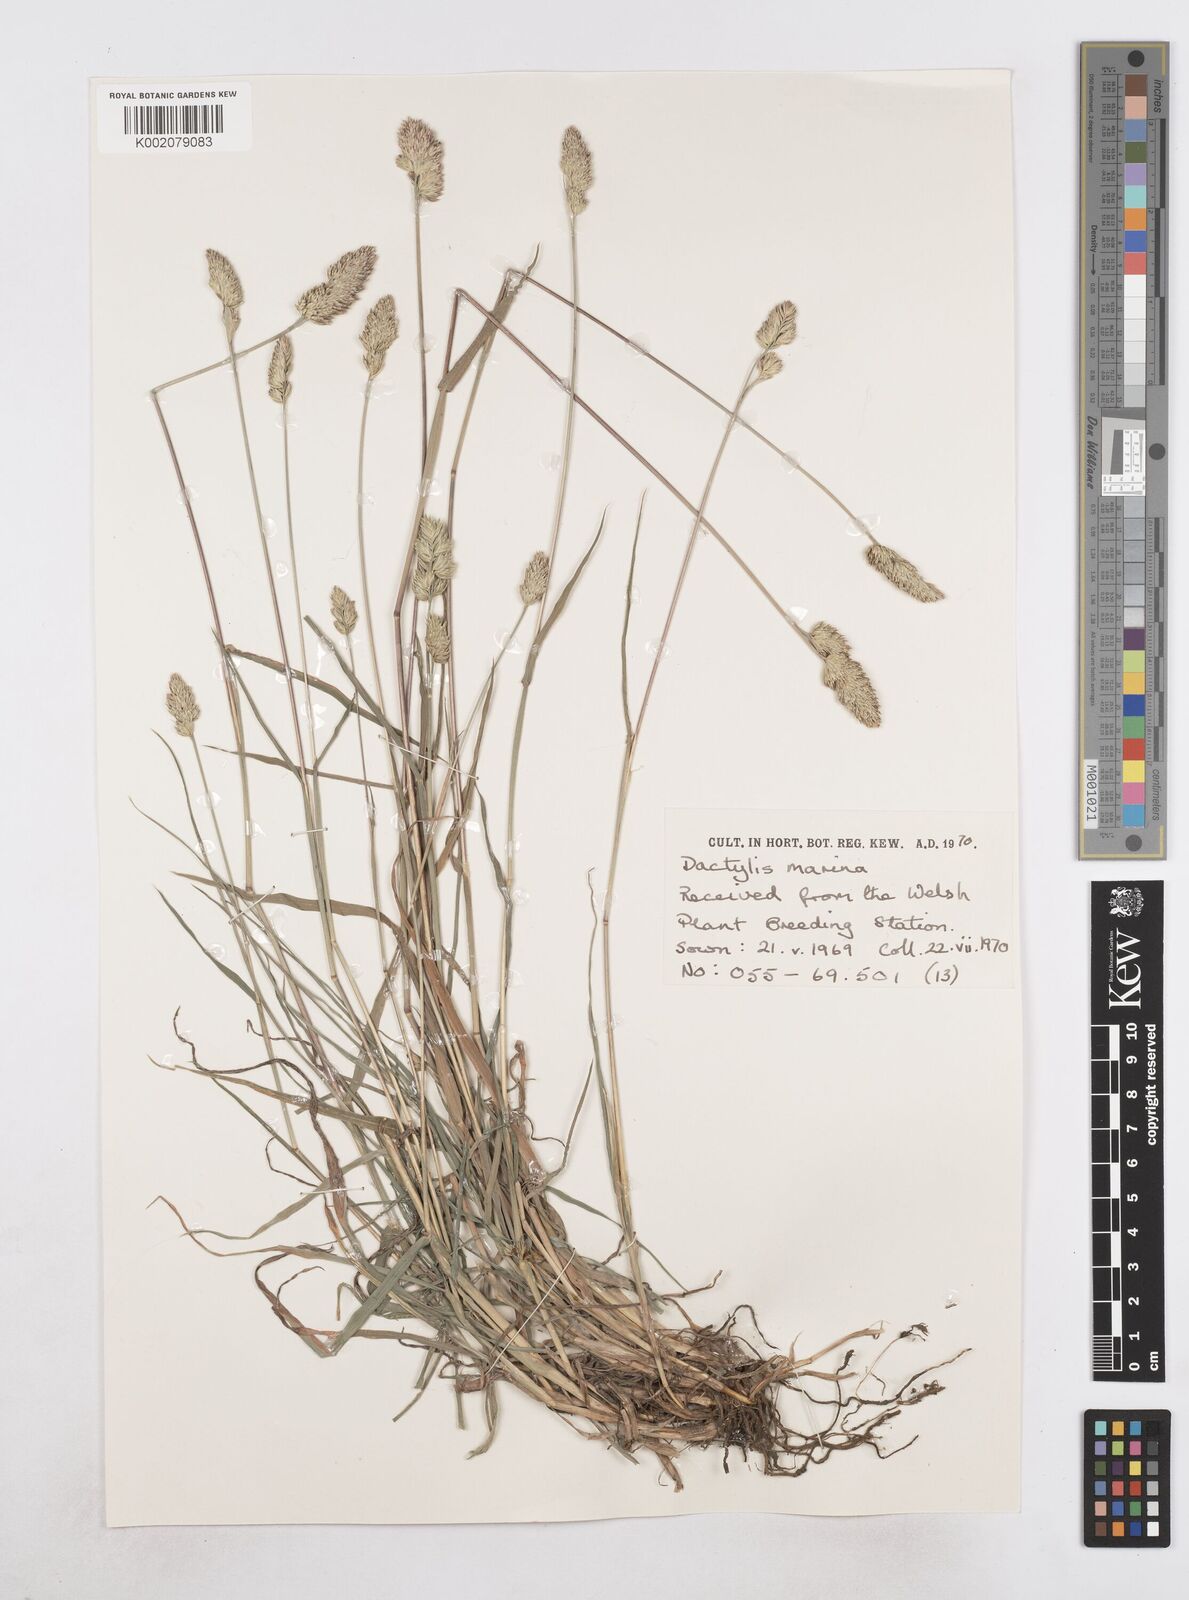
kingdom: Plantae
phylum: Tracheophyta
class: Liliopsida
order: Poales
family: Poaceae
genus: Dactylis
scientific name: Dactylis glomerata
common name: Orchardgrass
